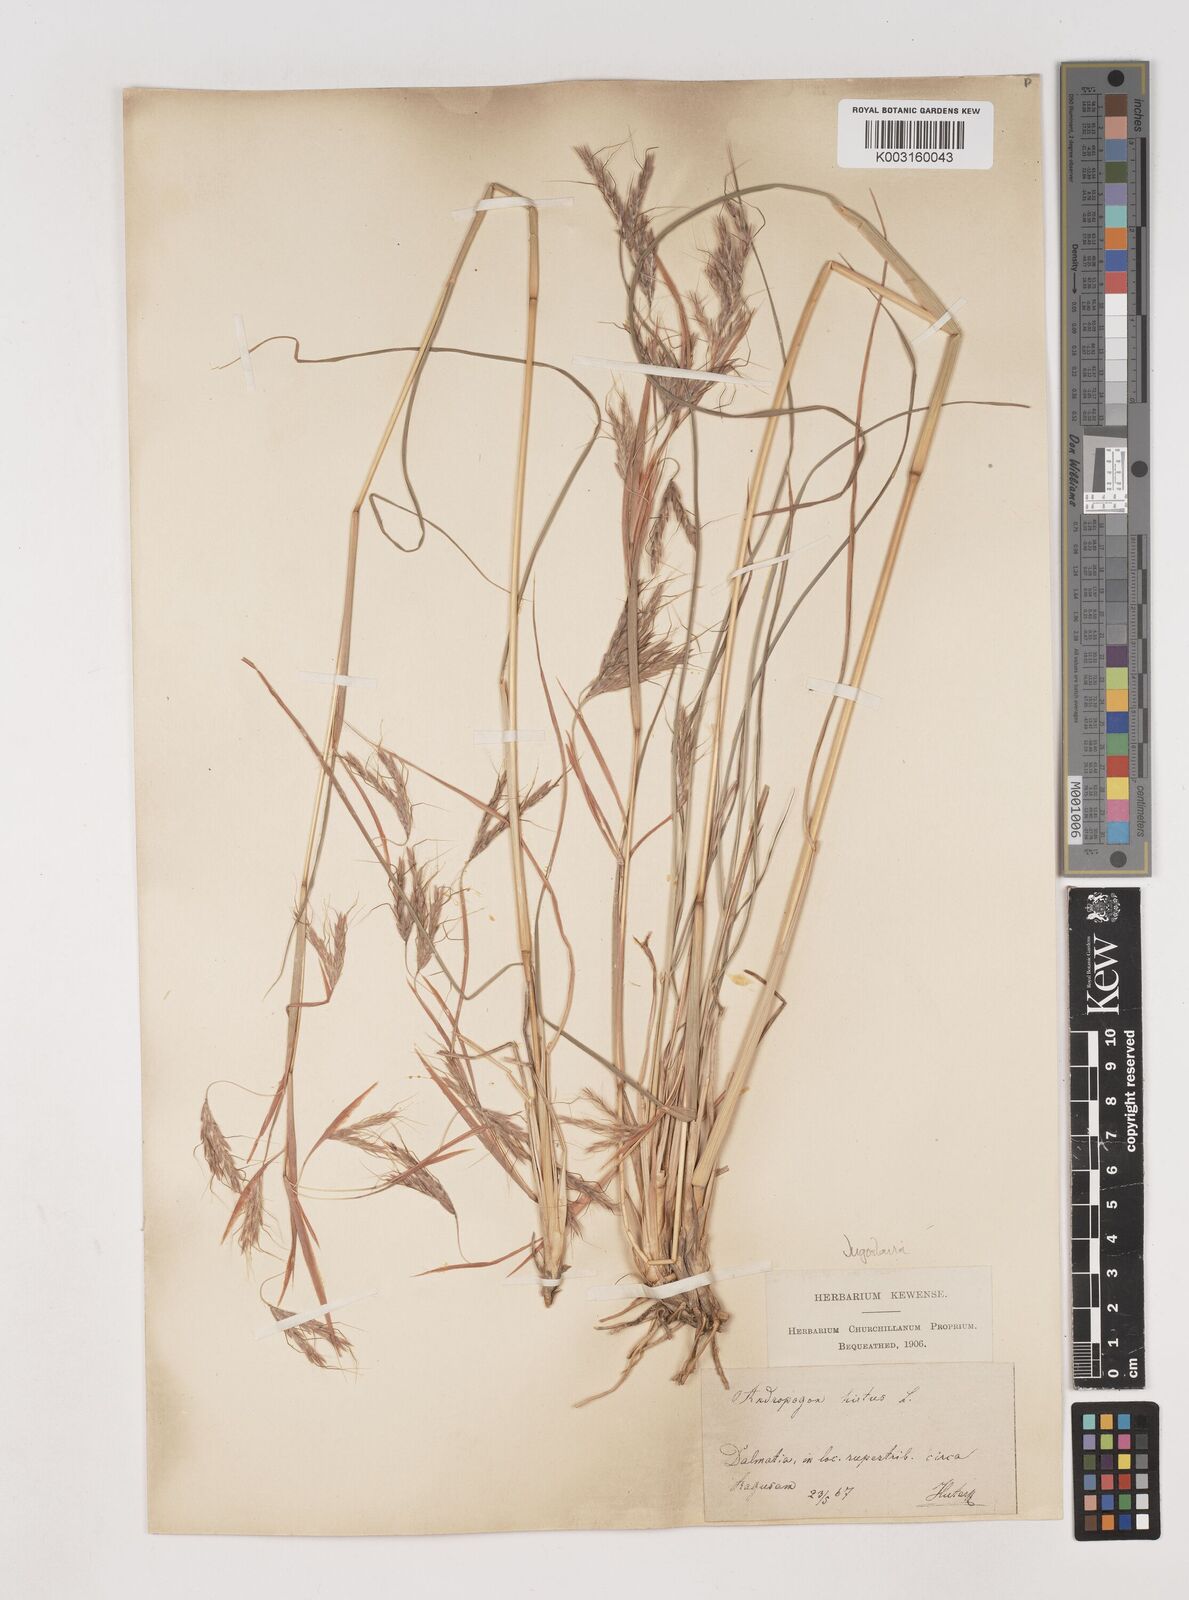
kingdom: Plantae
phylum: Tracheophyta
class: Liliopsida
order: Poales
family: Poaceae
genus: Hyparrhenia
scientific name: Hyparrhenia hirta
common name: Thatching grass
